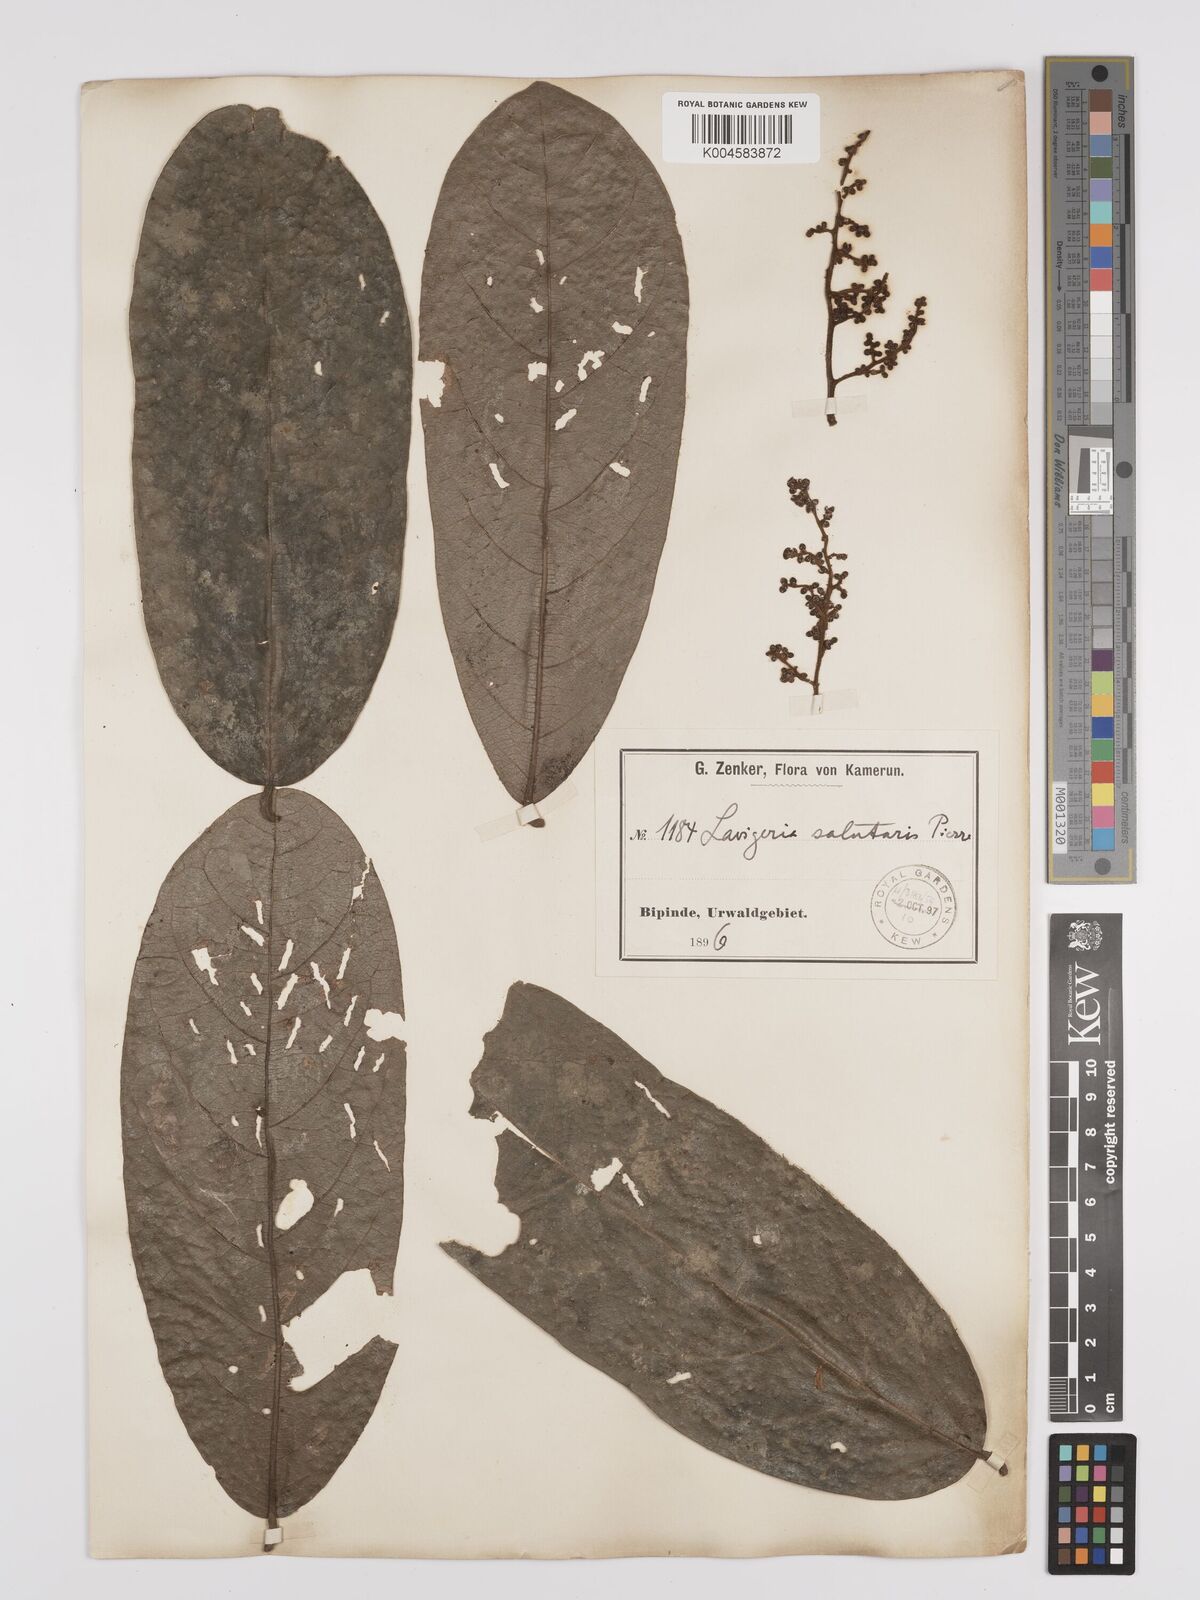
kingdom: Plantae
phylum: Tracheophyta
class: Magnoliopsida
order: Icacinales
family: Icacinaceae
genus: Lavigeria
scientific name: Lavigeria macrocarpa
